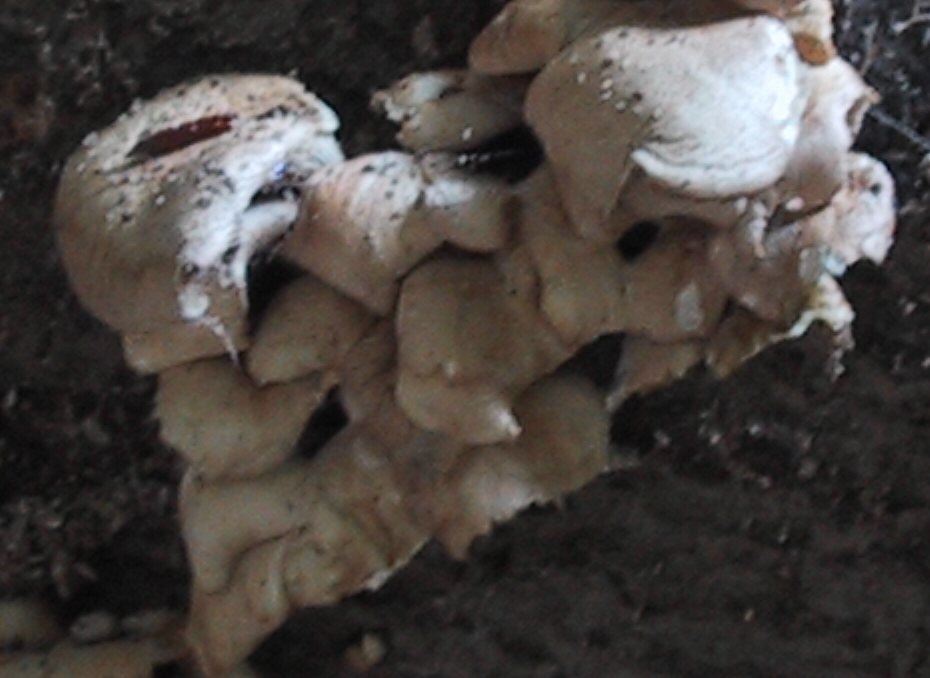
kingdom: Fungi
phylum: Basidiomycota
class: Agaricomycetes
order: Agaricales
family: Pleurotaceae
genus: Pleurotus
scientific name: Pleurotus pulmonarius
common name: sommer-østershat
